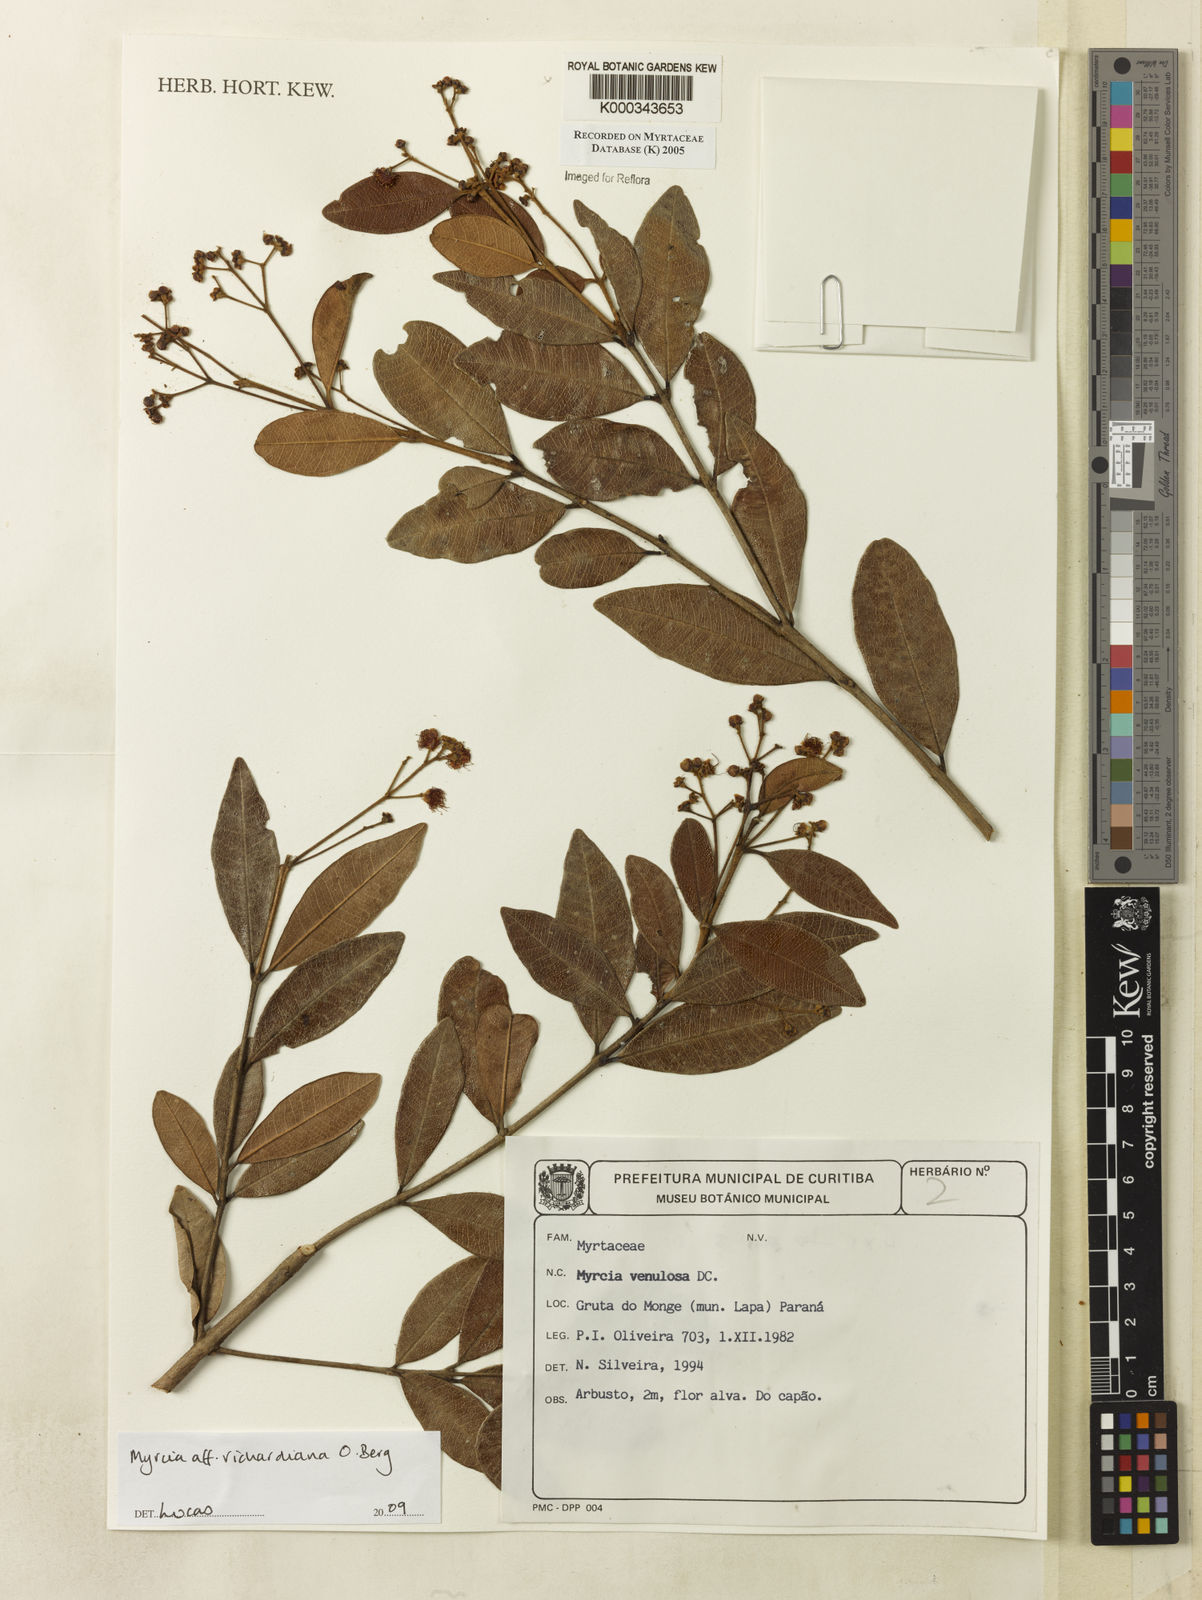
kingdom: Plantae
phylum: Tracheophyta
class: Magnoliopsida
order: Myrtales
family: Myrtaceae
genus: Myrcia
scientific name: Myrcia venulosa
